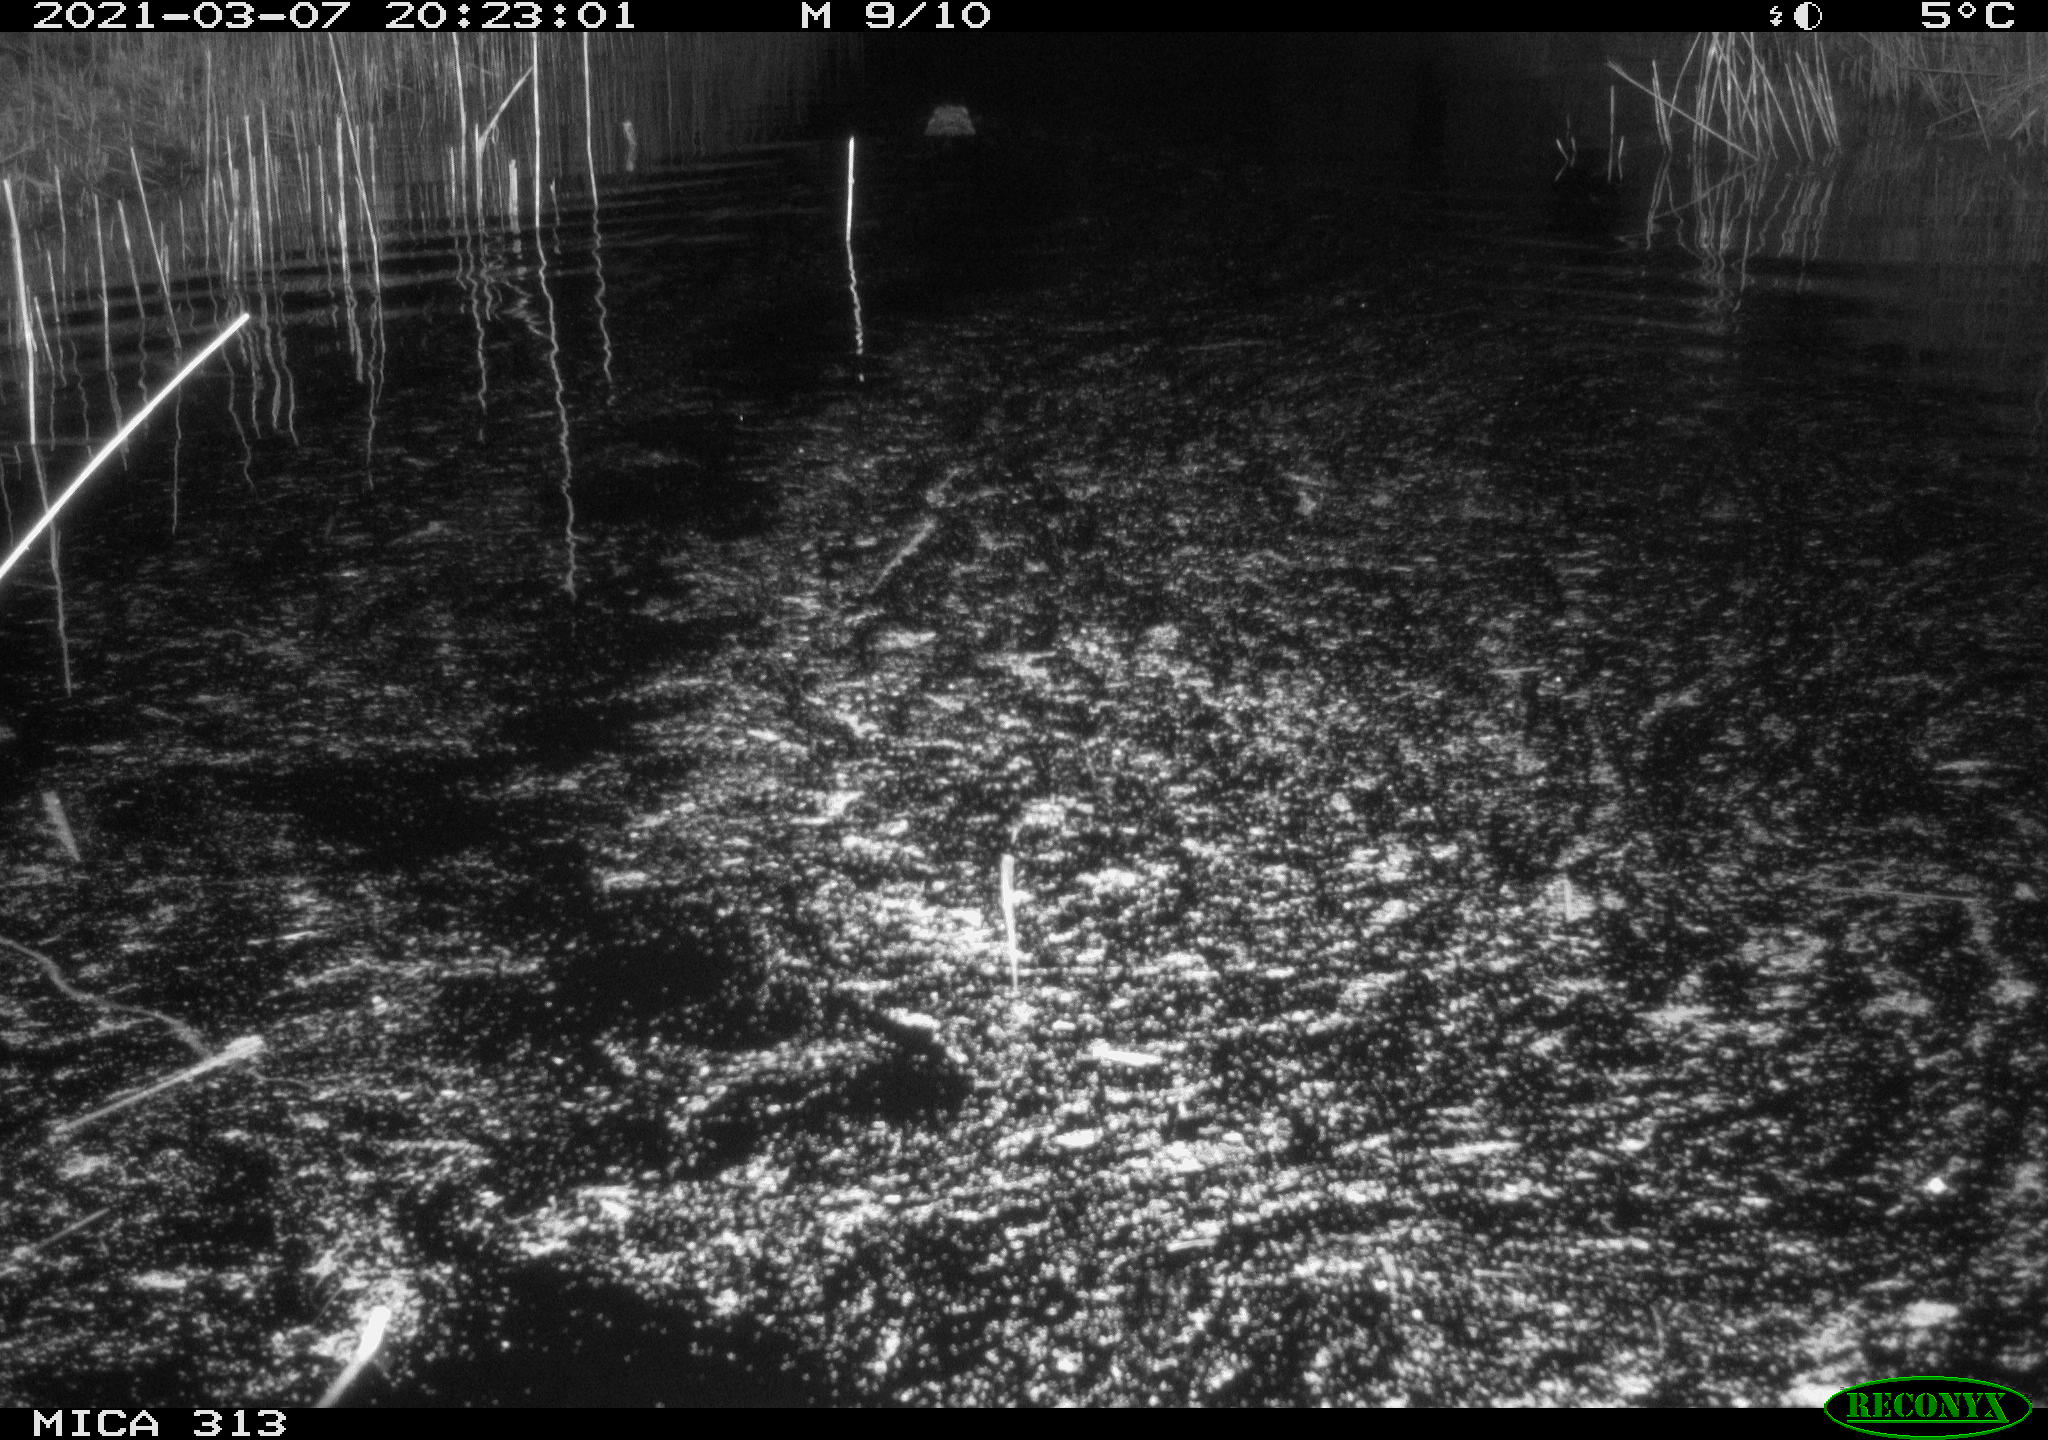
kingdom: Animalia
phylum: Chordata
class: Mammalia
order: Rodentia
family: Cricetidae
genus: Ondatra
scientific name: Ondatra zibethicus
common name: Muskrat
